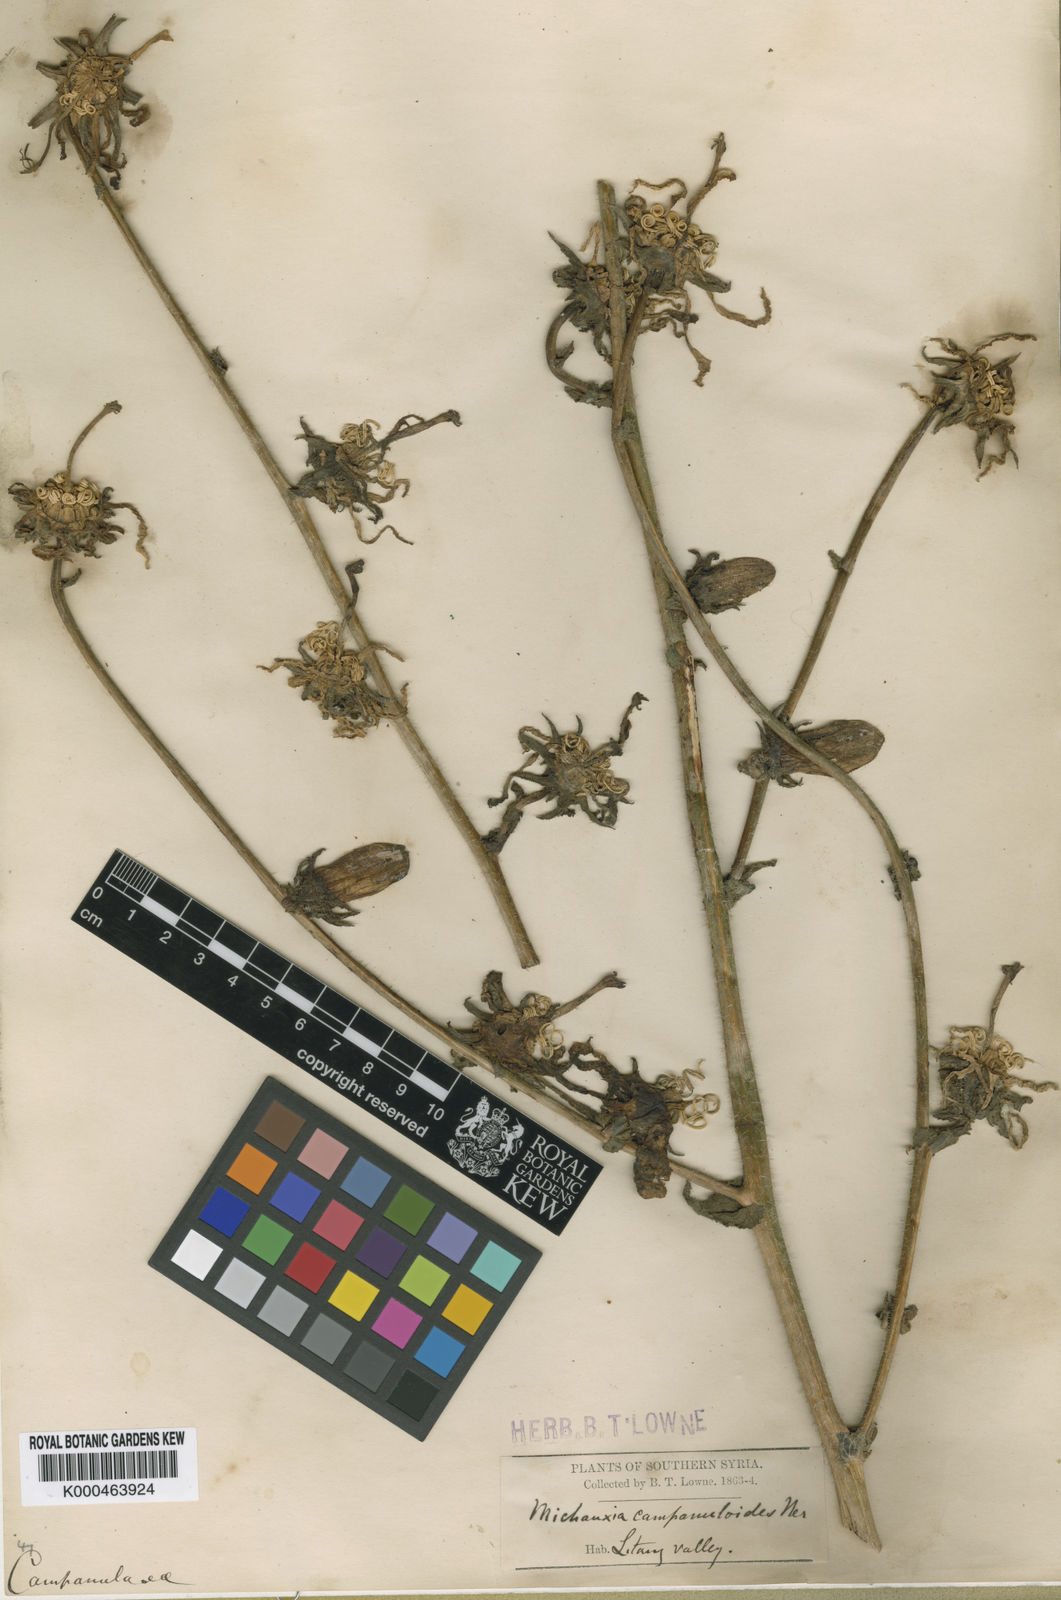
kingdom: Plantae
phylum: Tracheophyta
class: Magnoliopsida
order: Asterales
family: Campanulaceae
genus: Michauxia
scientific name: Michauxia
